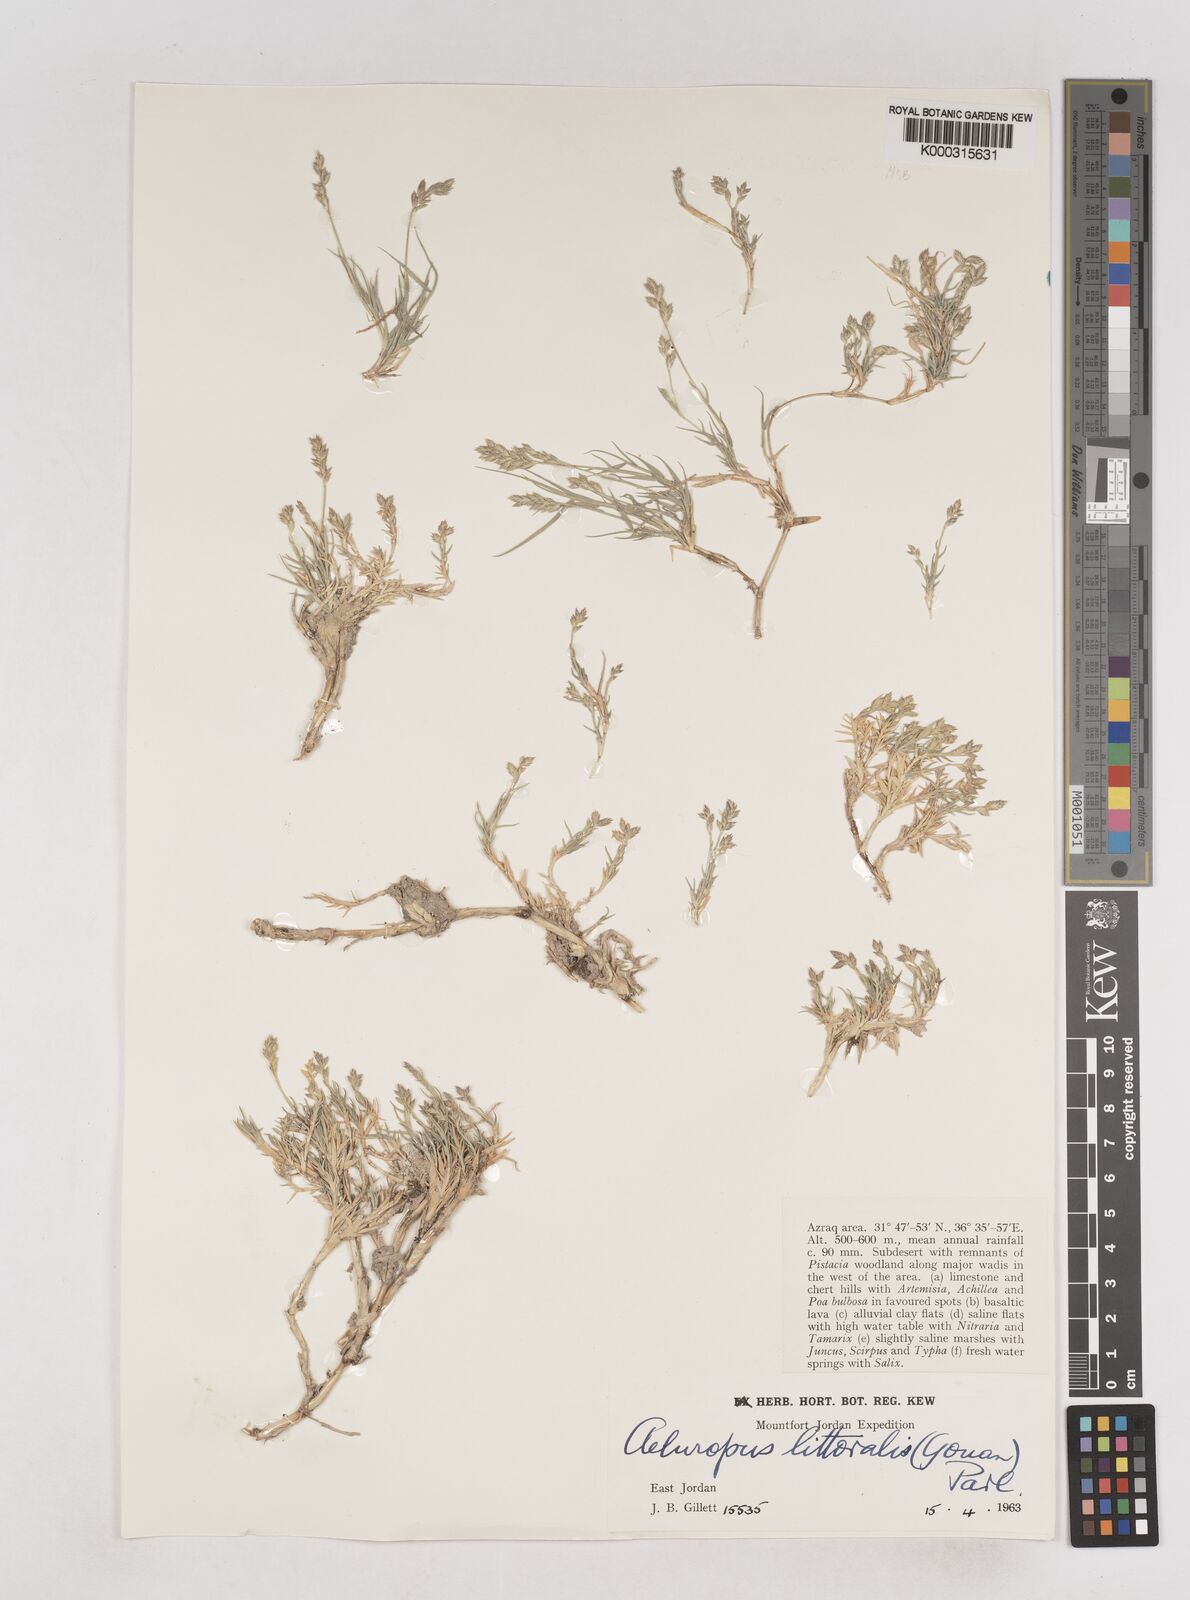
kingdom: Plantae
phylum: Tracheophyta
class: Liliopsida
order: Poales
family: Poaceae
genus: Aeluropus
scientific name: Aeluropus littoralis
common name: Indian walnut
